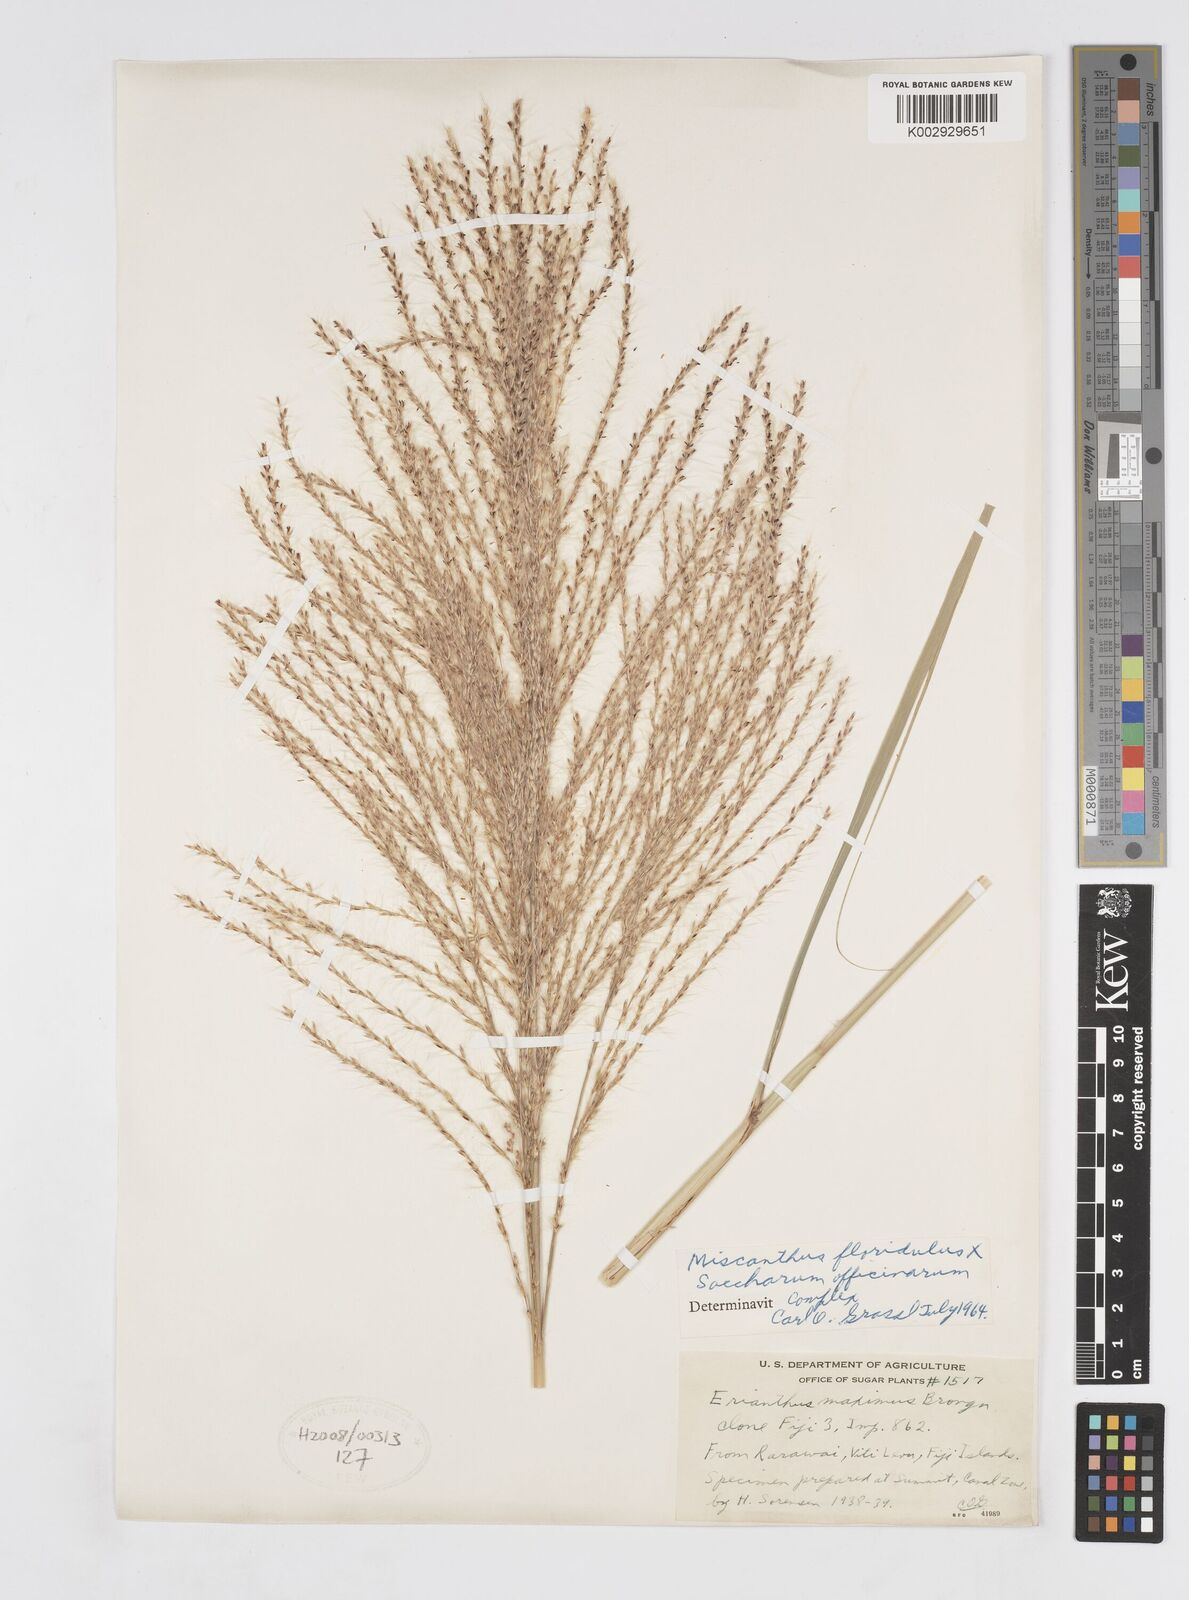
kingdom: Plantae
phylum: Tracheophyta
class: Liliopsida
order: Poales
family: Poaceae
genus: Saccharum
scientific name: Saccharum officinarum
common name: Sugarcane
